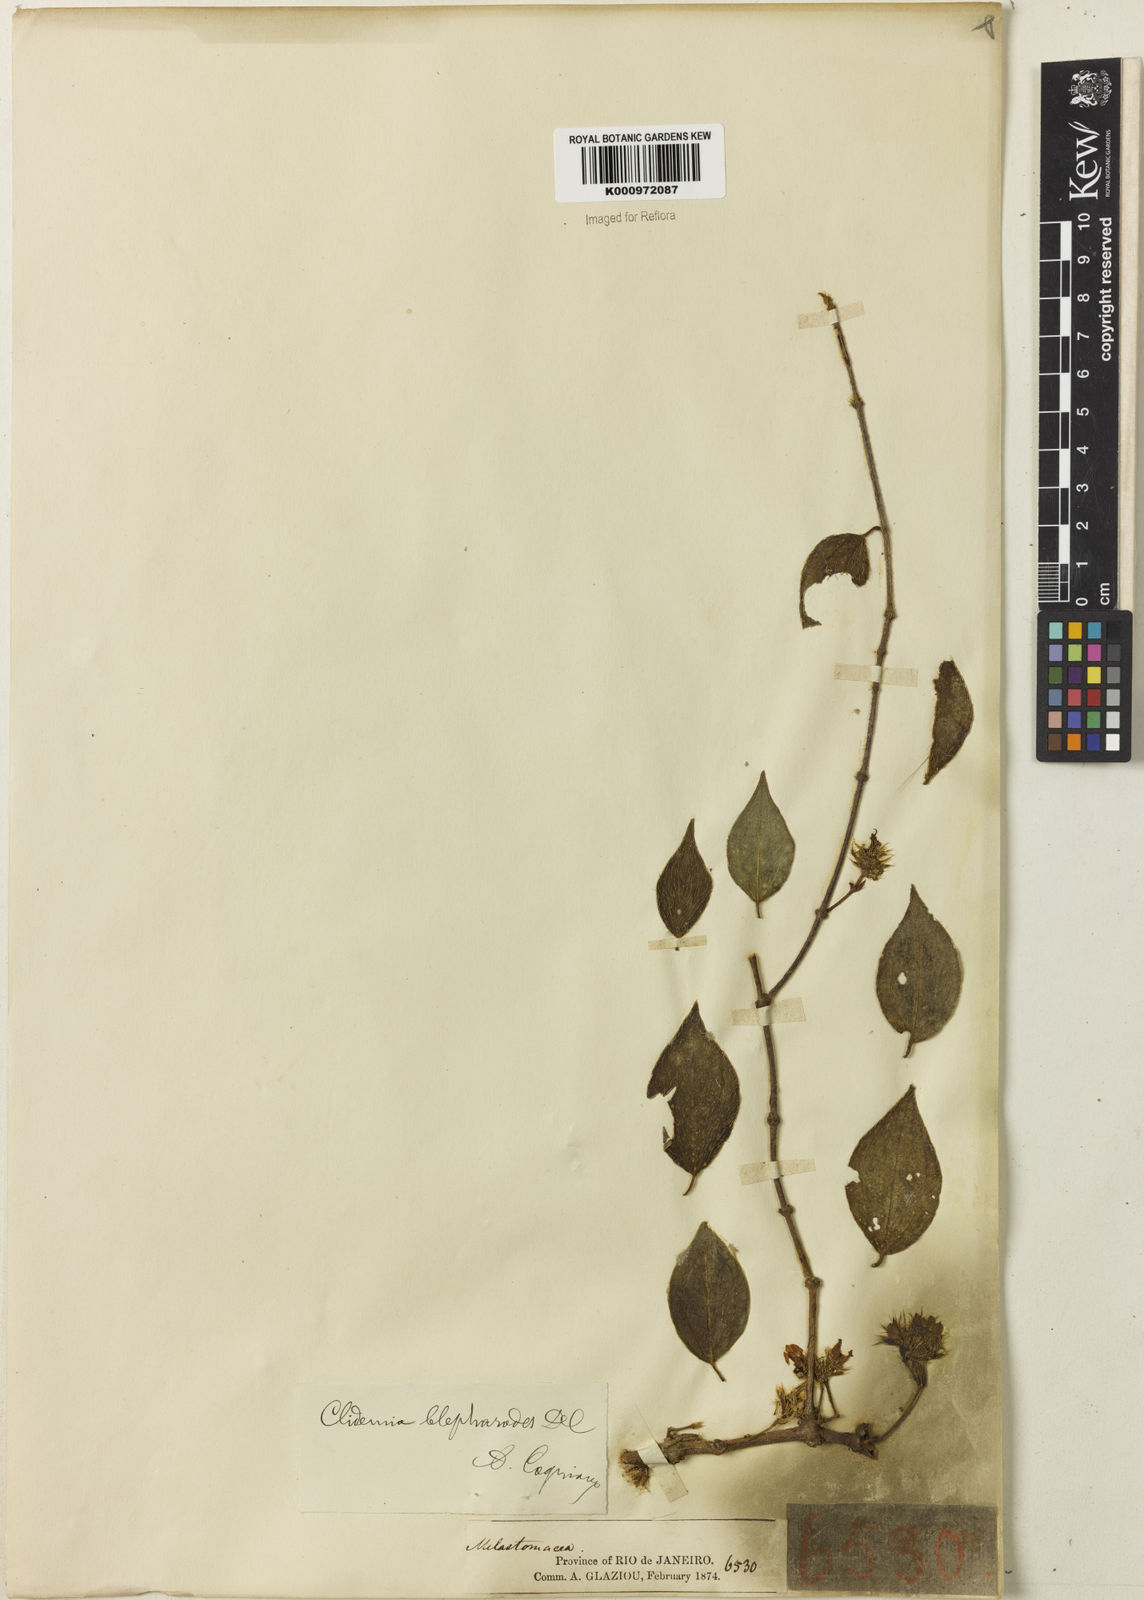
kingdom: Plantae
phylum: Tracheophyta
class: Magnoliopsida
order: Myrtales
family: Melastomataceae
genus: Miconia
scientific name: Miconia
